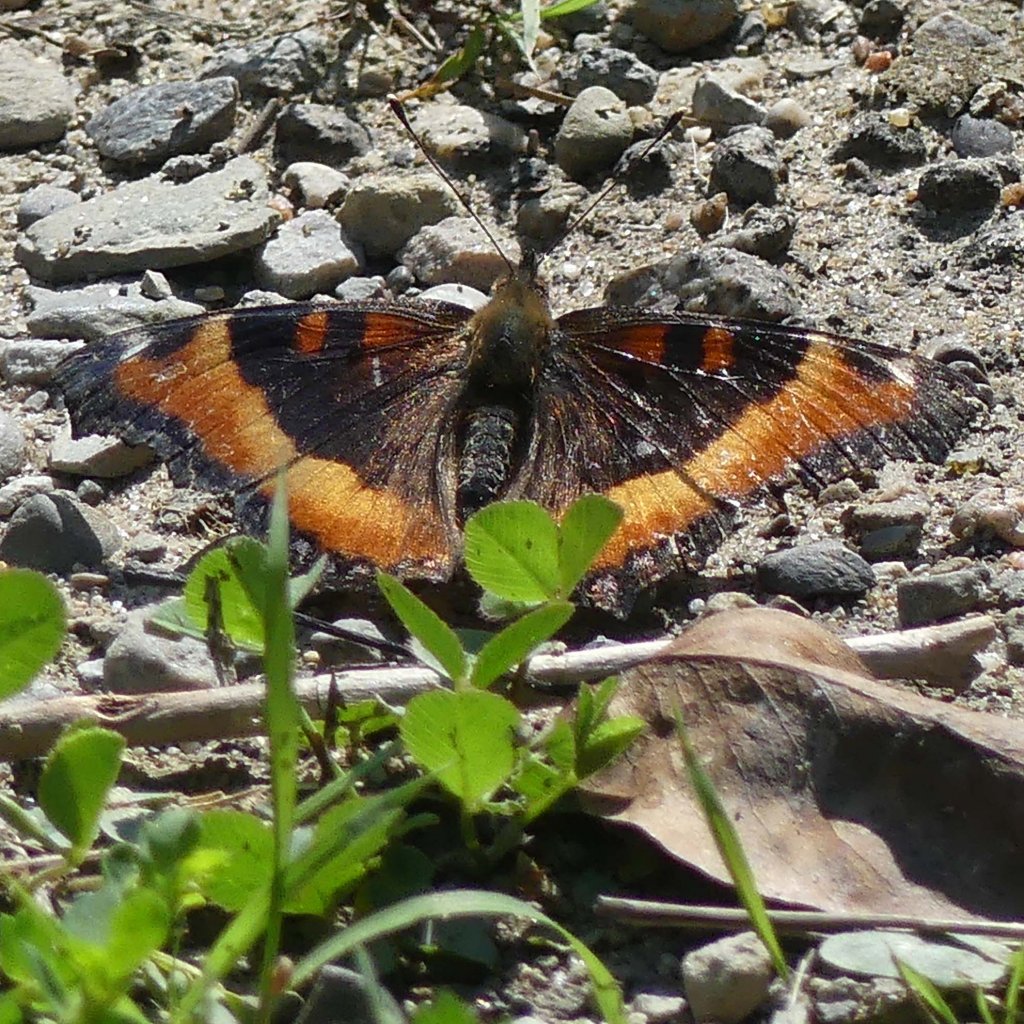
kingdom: Animalia
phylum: Arthropoda
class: Insecta
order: Lepidoptera
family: Nymphalidae
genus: Aglais
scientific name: Aglais milberti
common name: Milbert's Tortoiseshell
